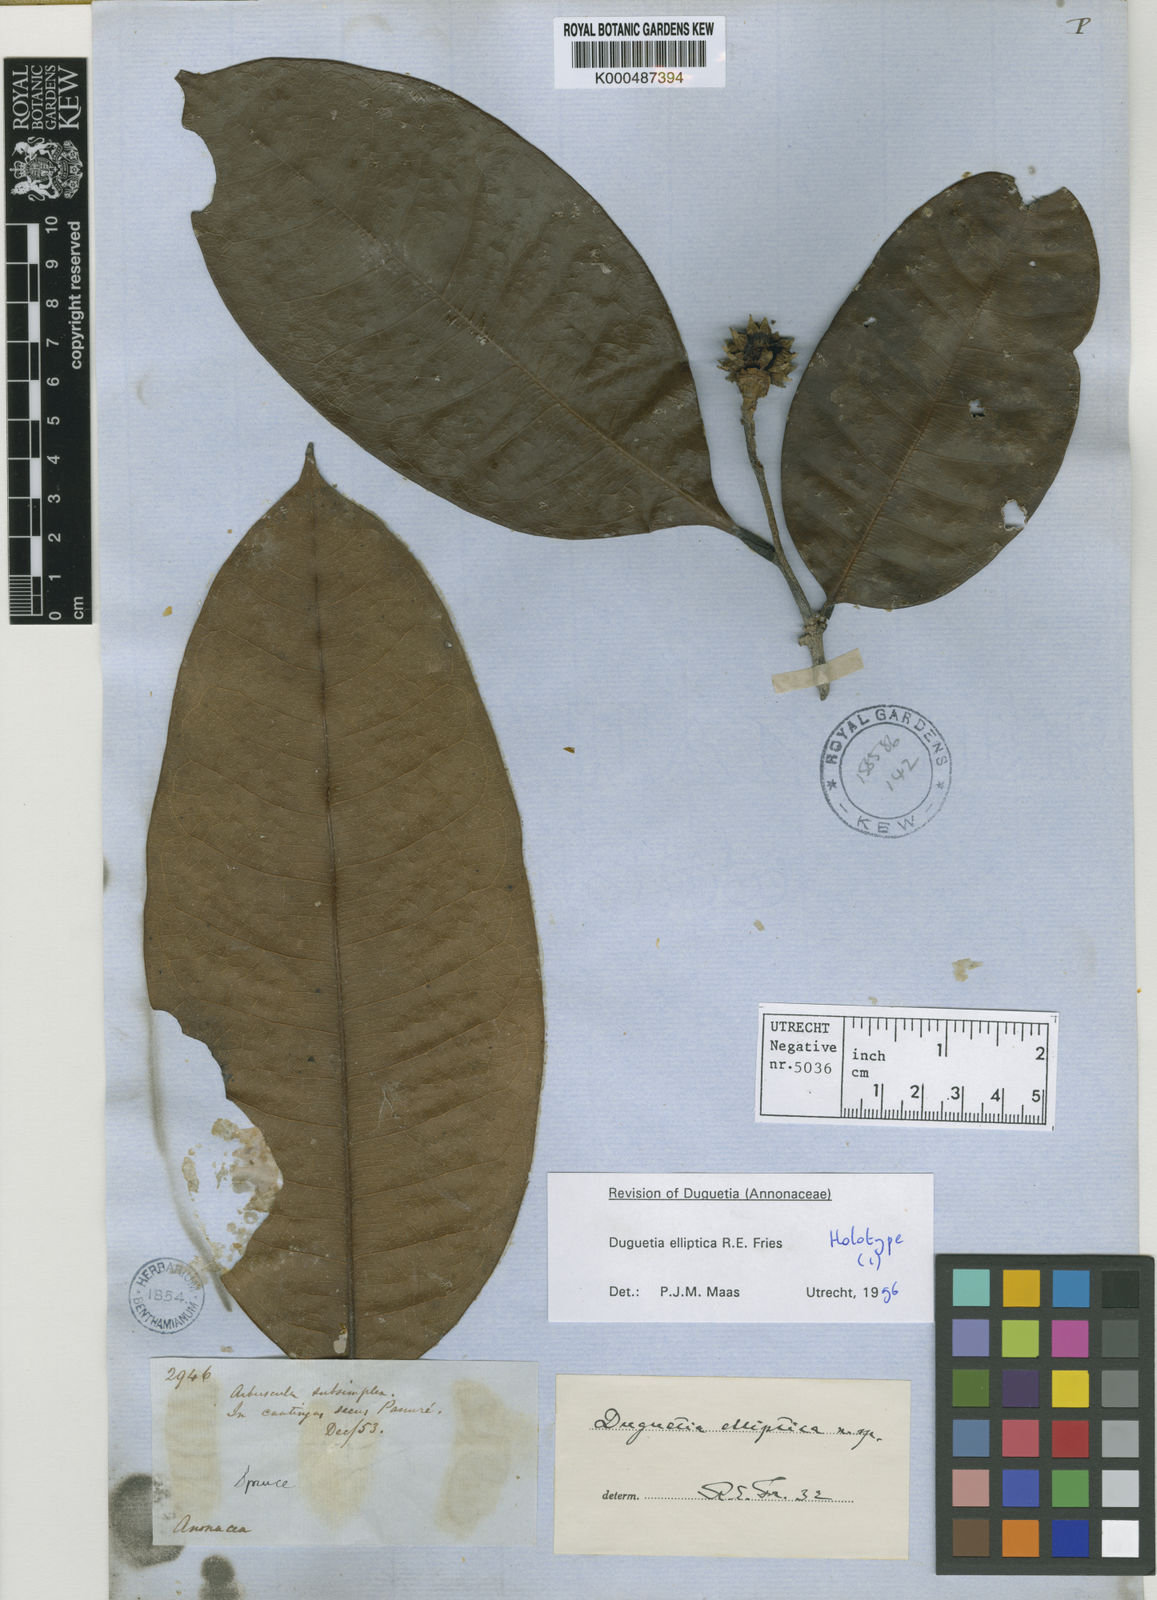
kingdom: Plantae
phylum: Tracheophyta
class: Magnoliopsida
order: Magnoliales
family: Annonaceae
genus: Duguetia
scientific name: Duguetia elliptica
